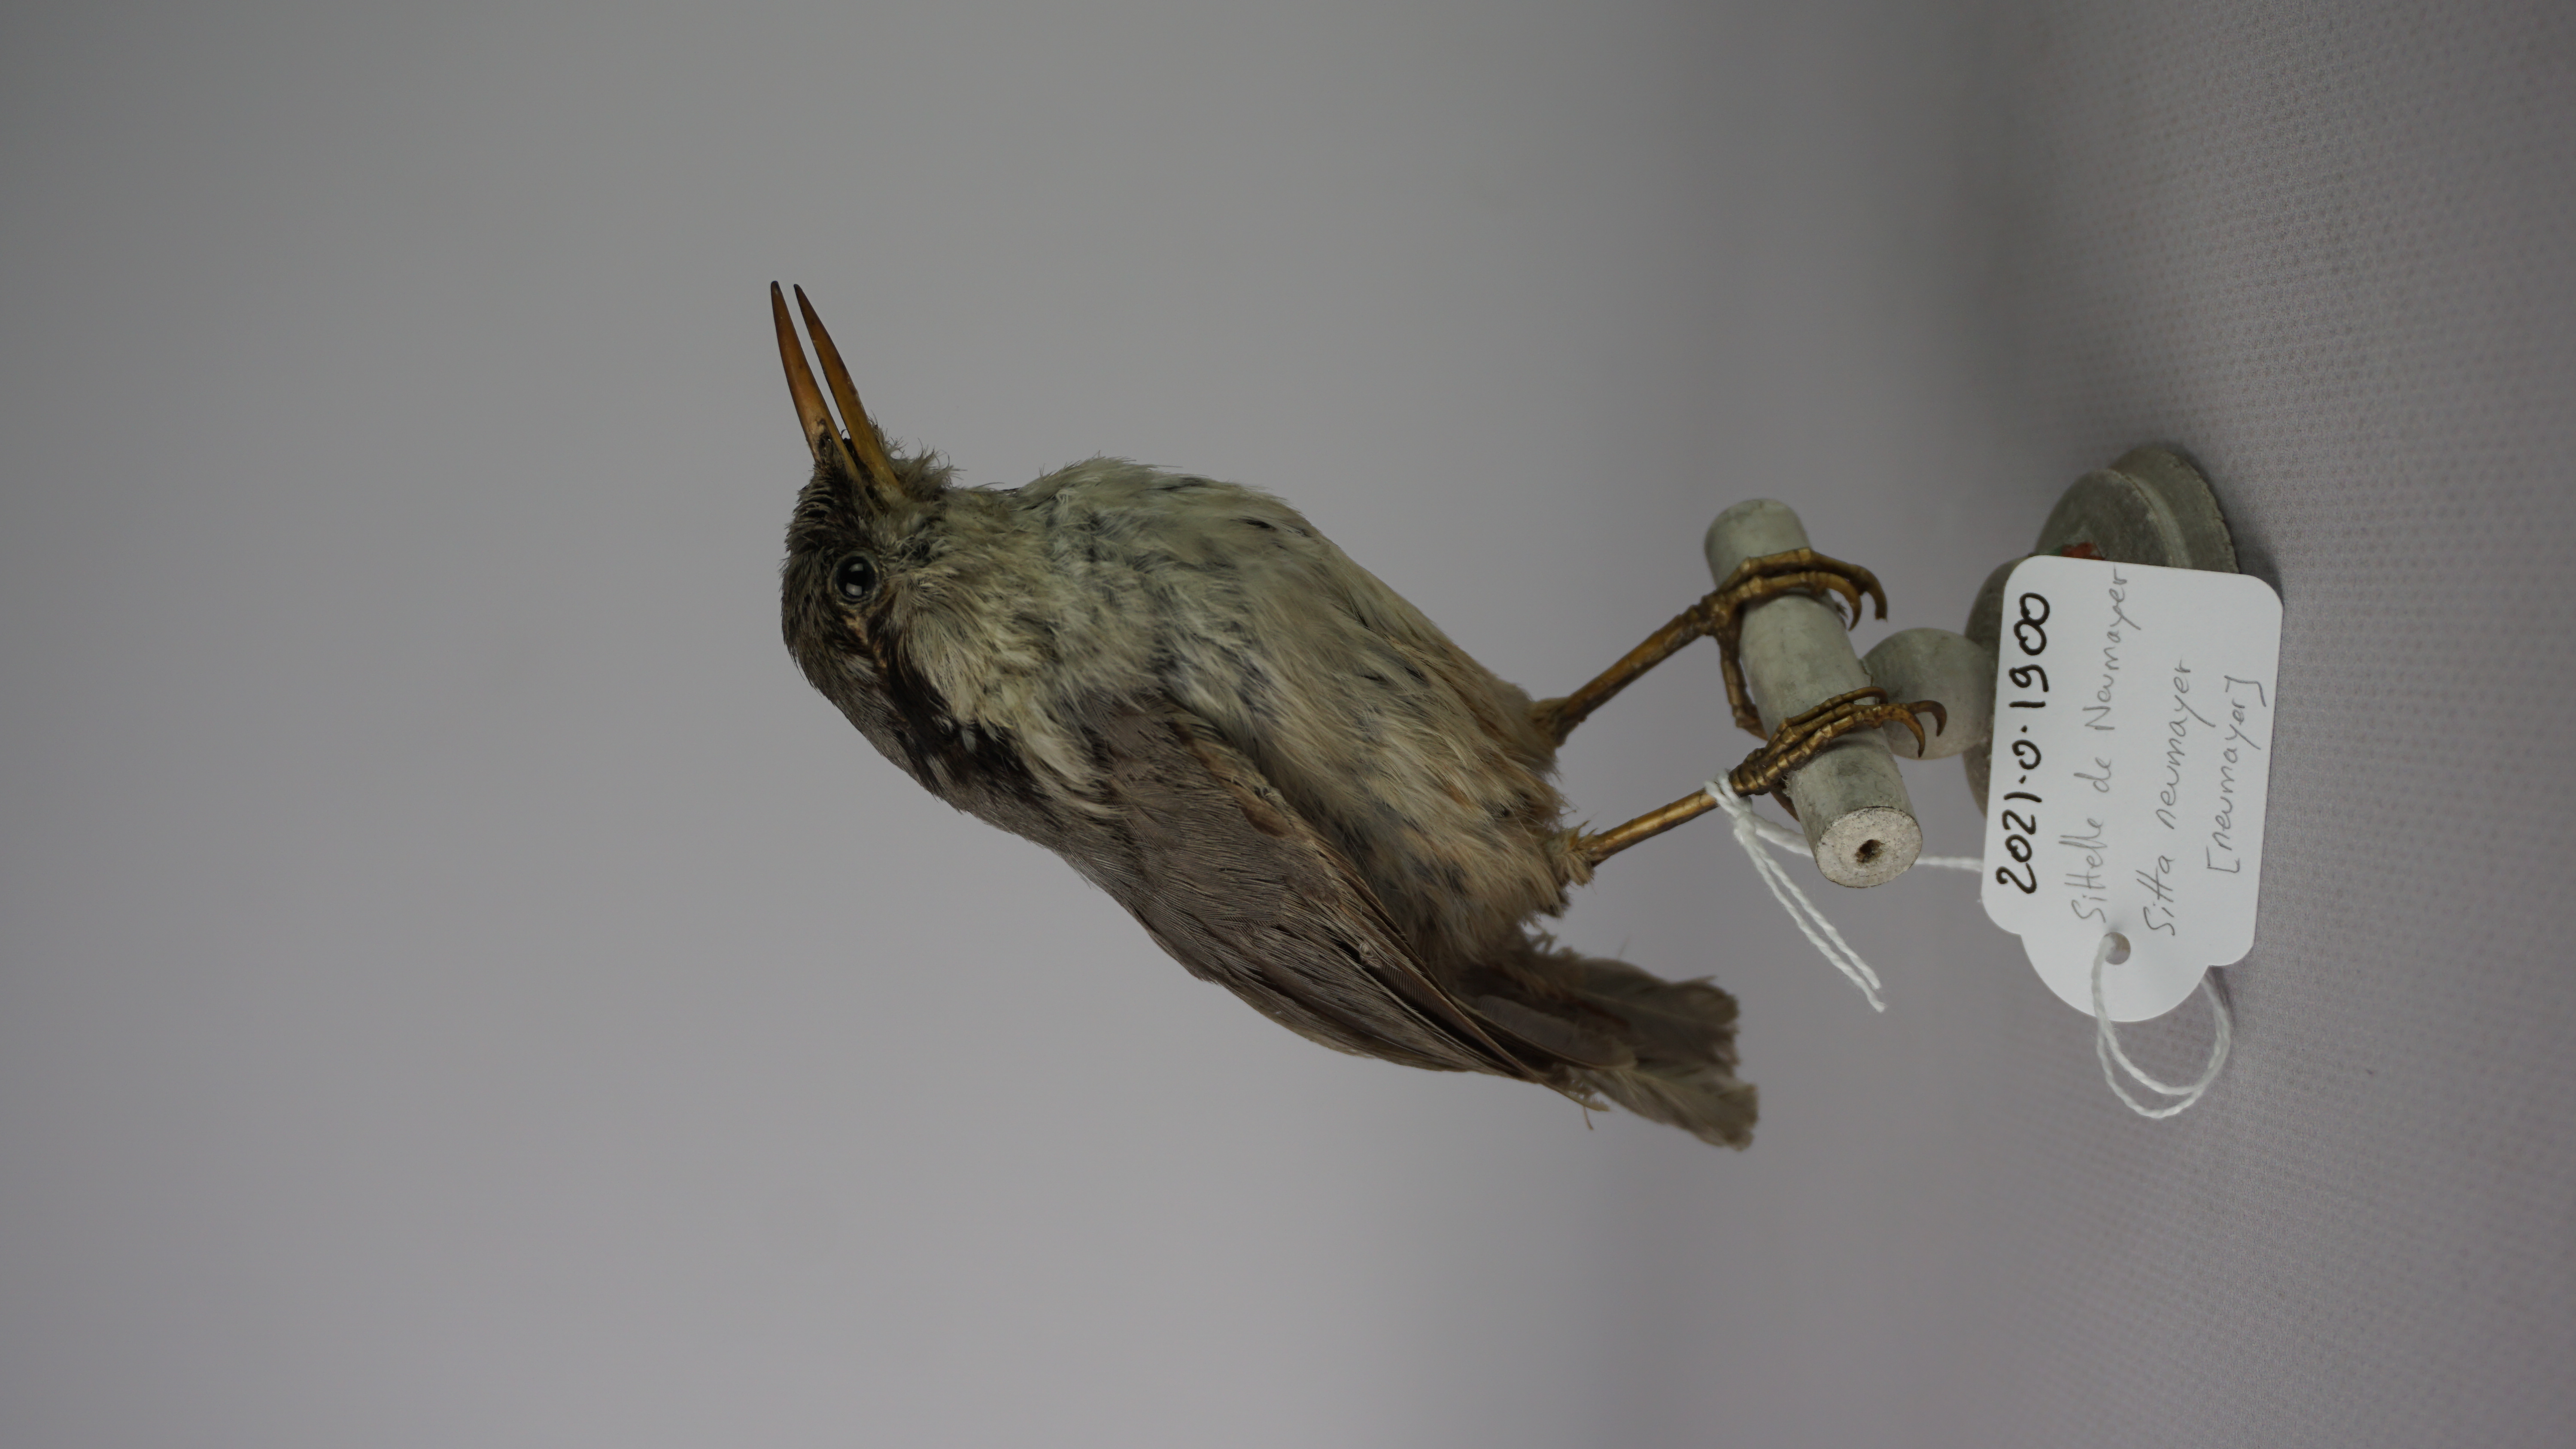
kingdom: Animalia
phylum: Chordata
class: Aves
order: Passeriformes
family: Sittidae
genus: Sitta
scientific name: Sitta neumayer
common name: Western rock nuthatch
